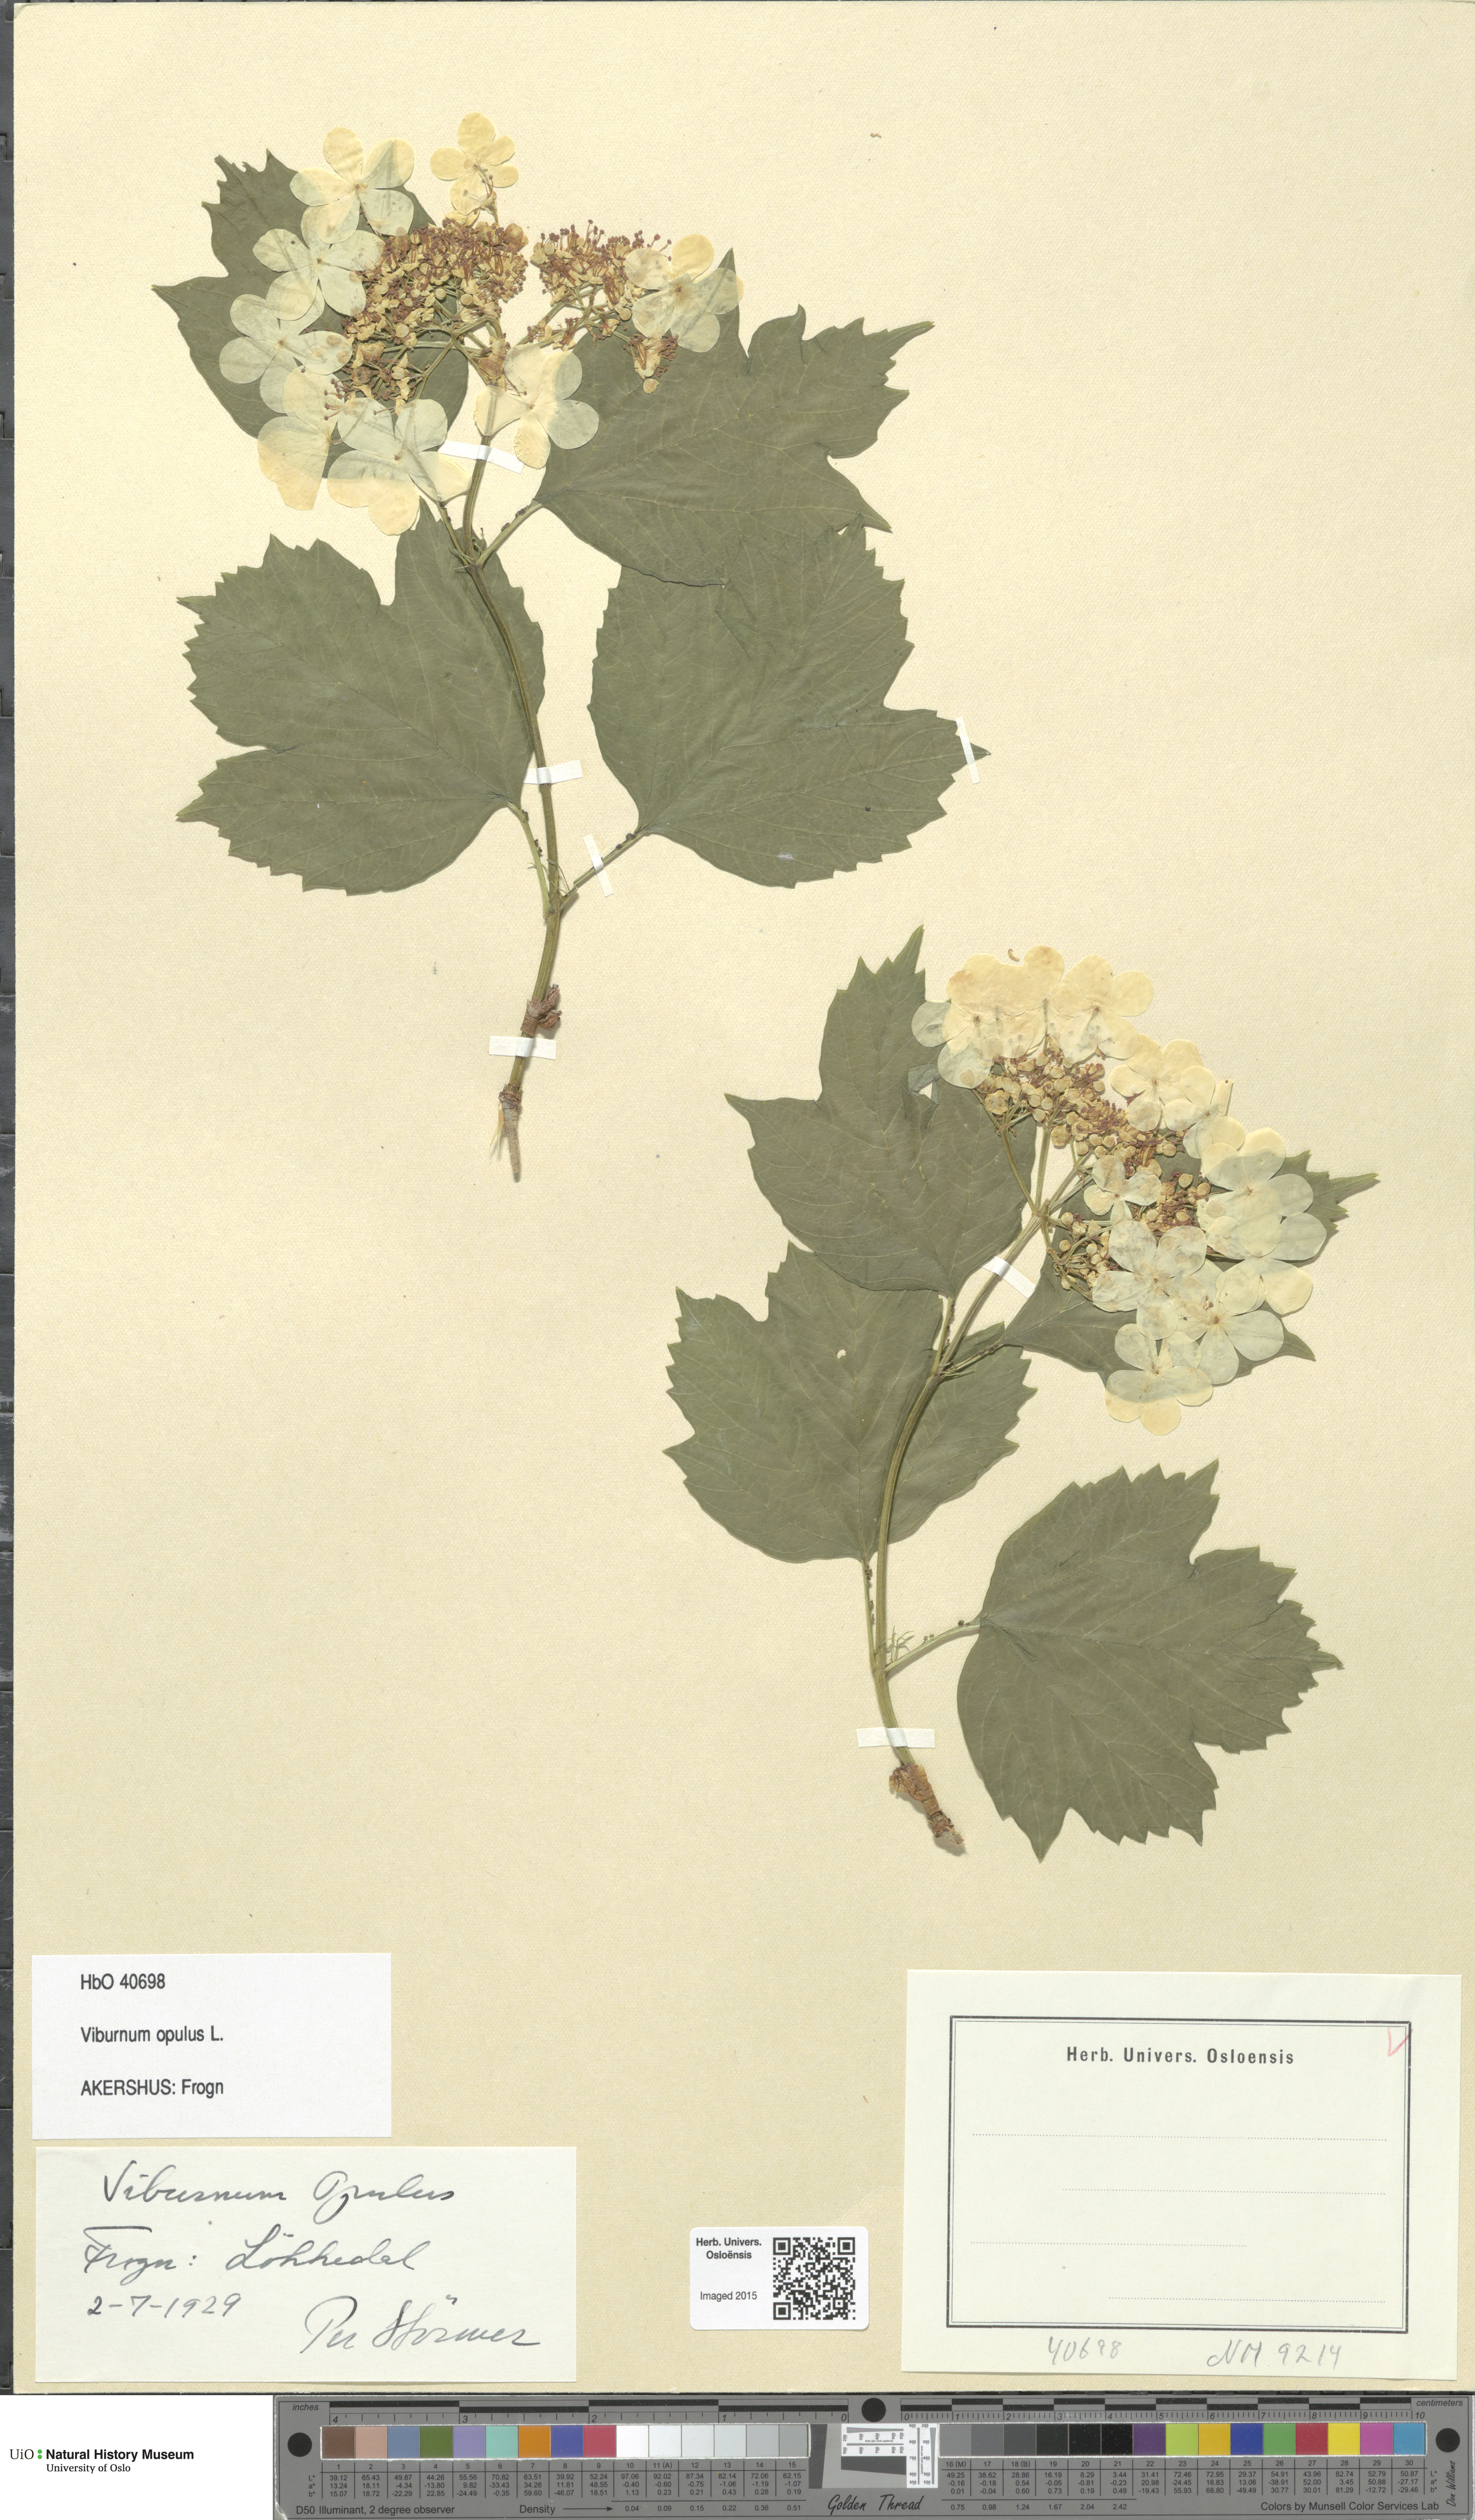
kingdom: Plantae
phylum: Tracheophyta
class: Magnoliopsida
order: Dipsacales
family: Viburnaceae
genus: Viburnum
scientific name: Viburnum opulus
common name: Guelder-rose
